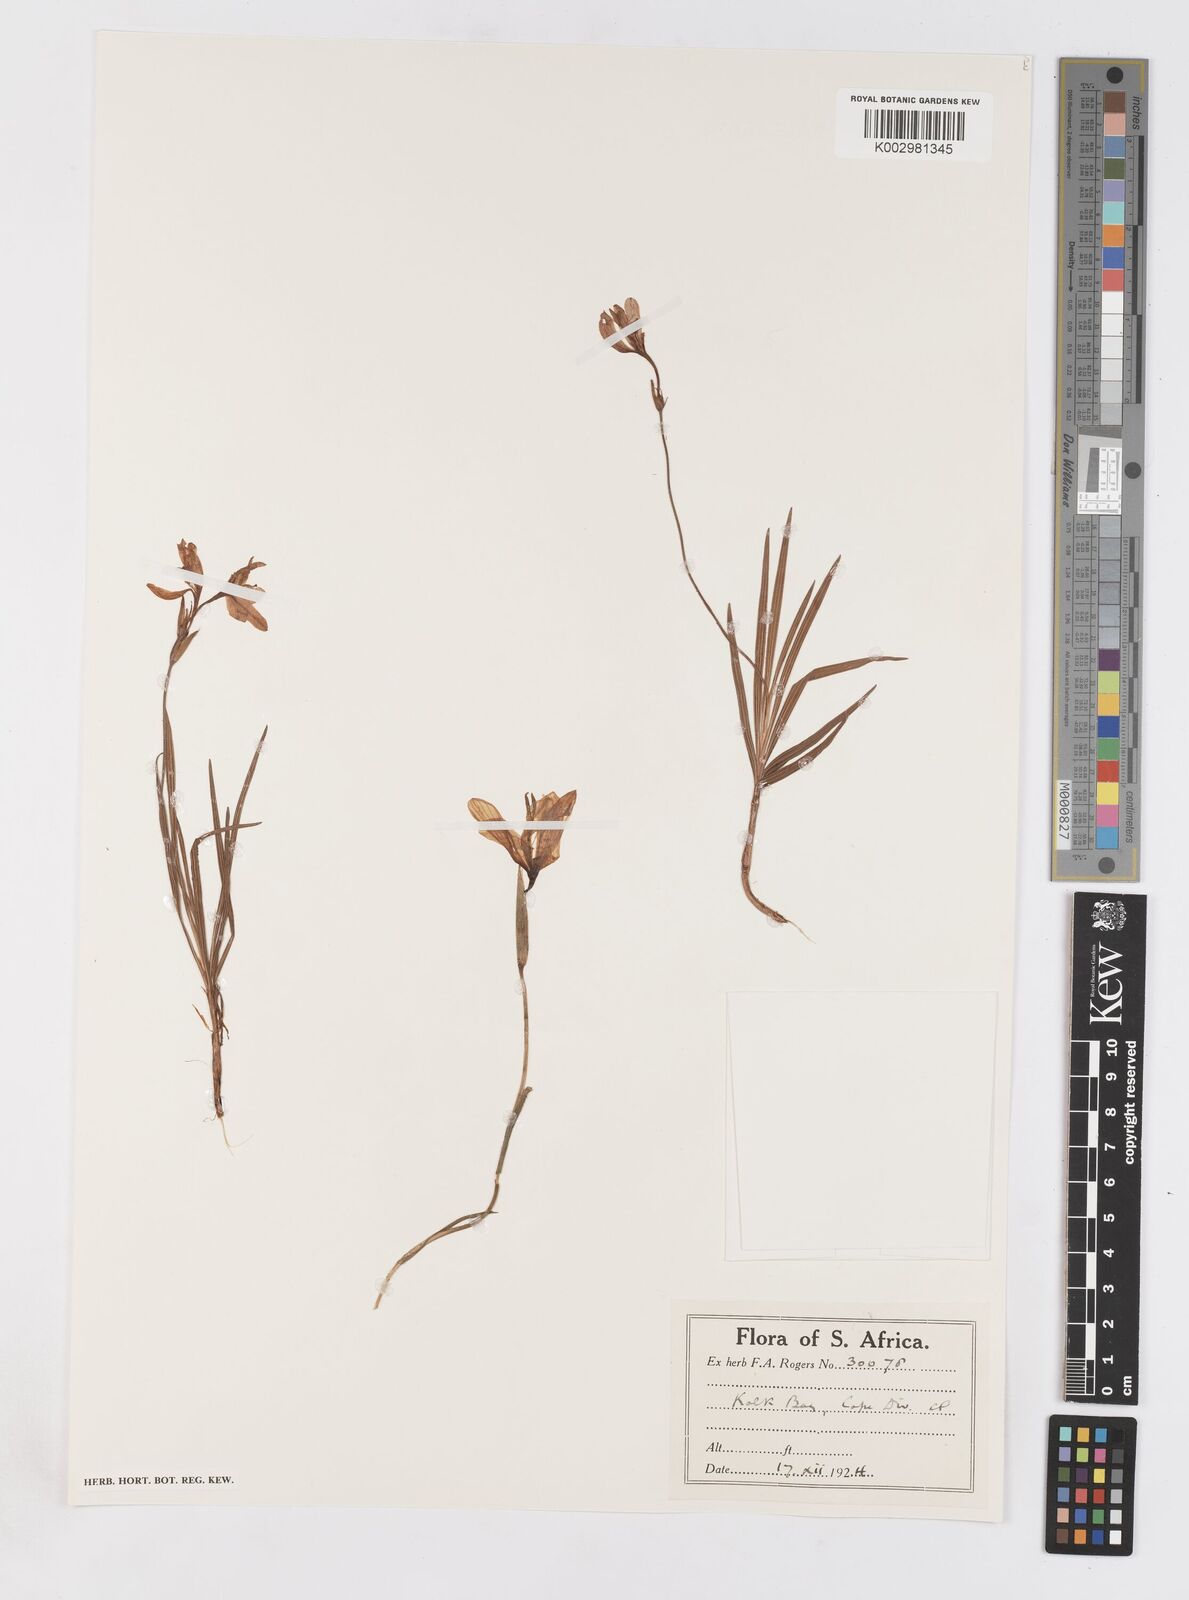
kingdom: Plantae
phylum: Tracheophyta
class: Liliopsida
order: Asparagales
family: Iridaceae
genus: Babiana
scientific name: Babiana
